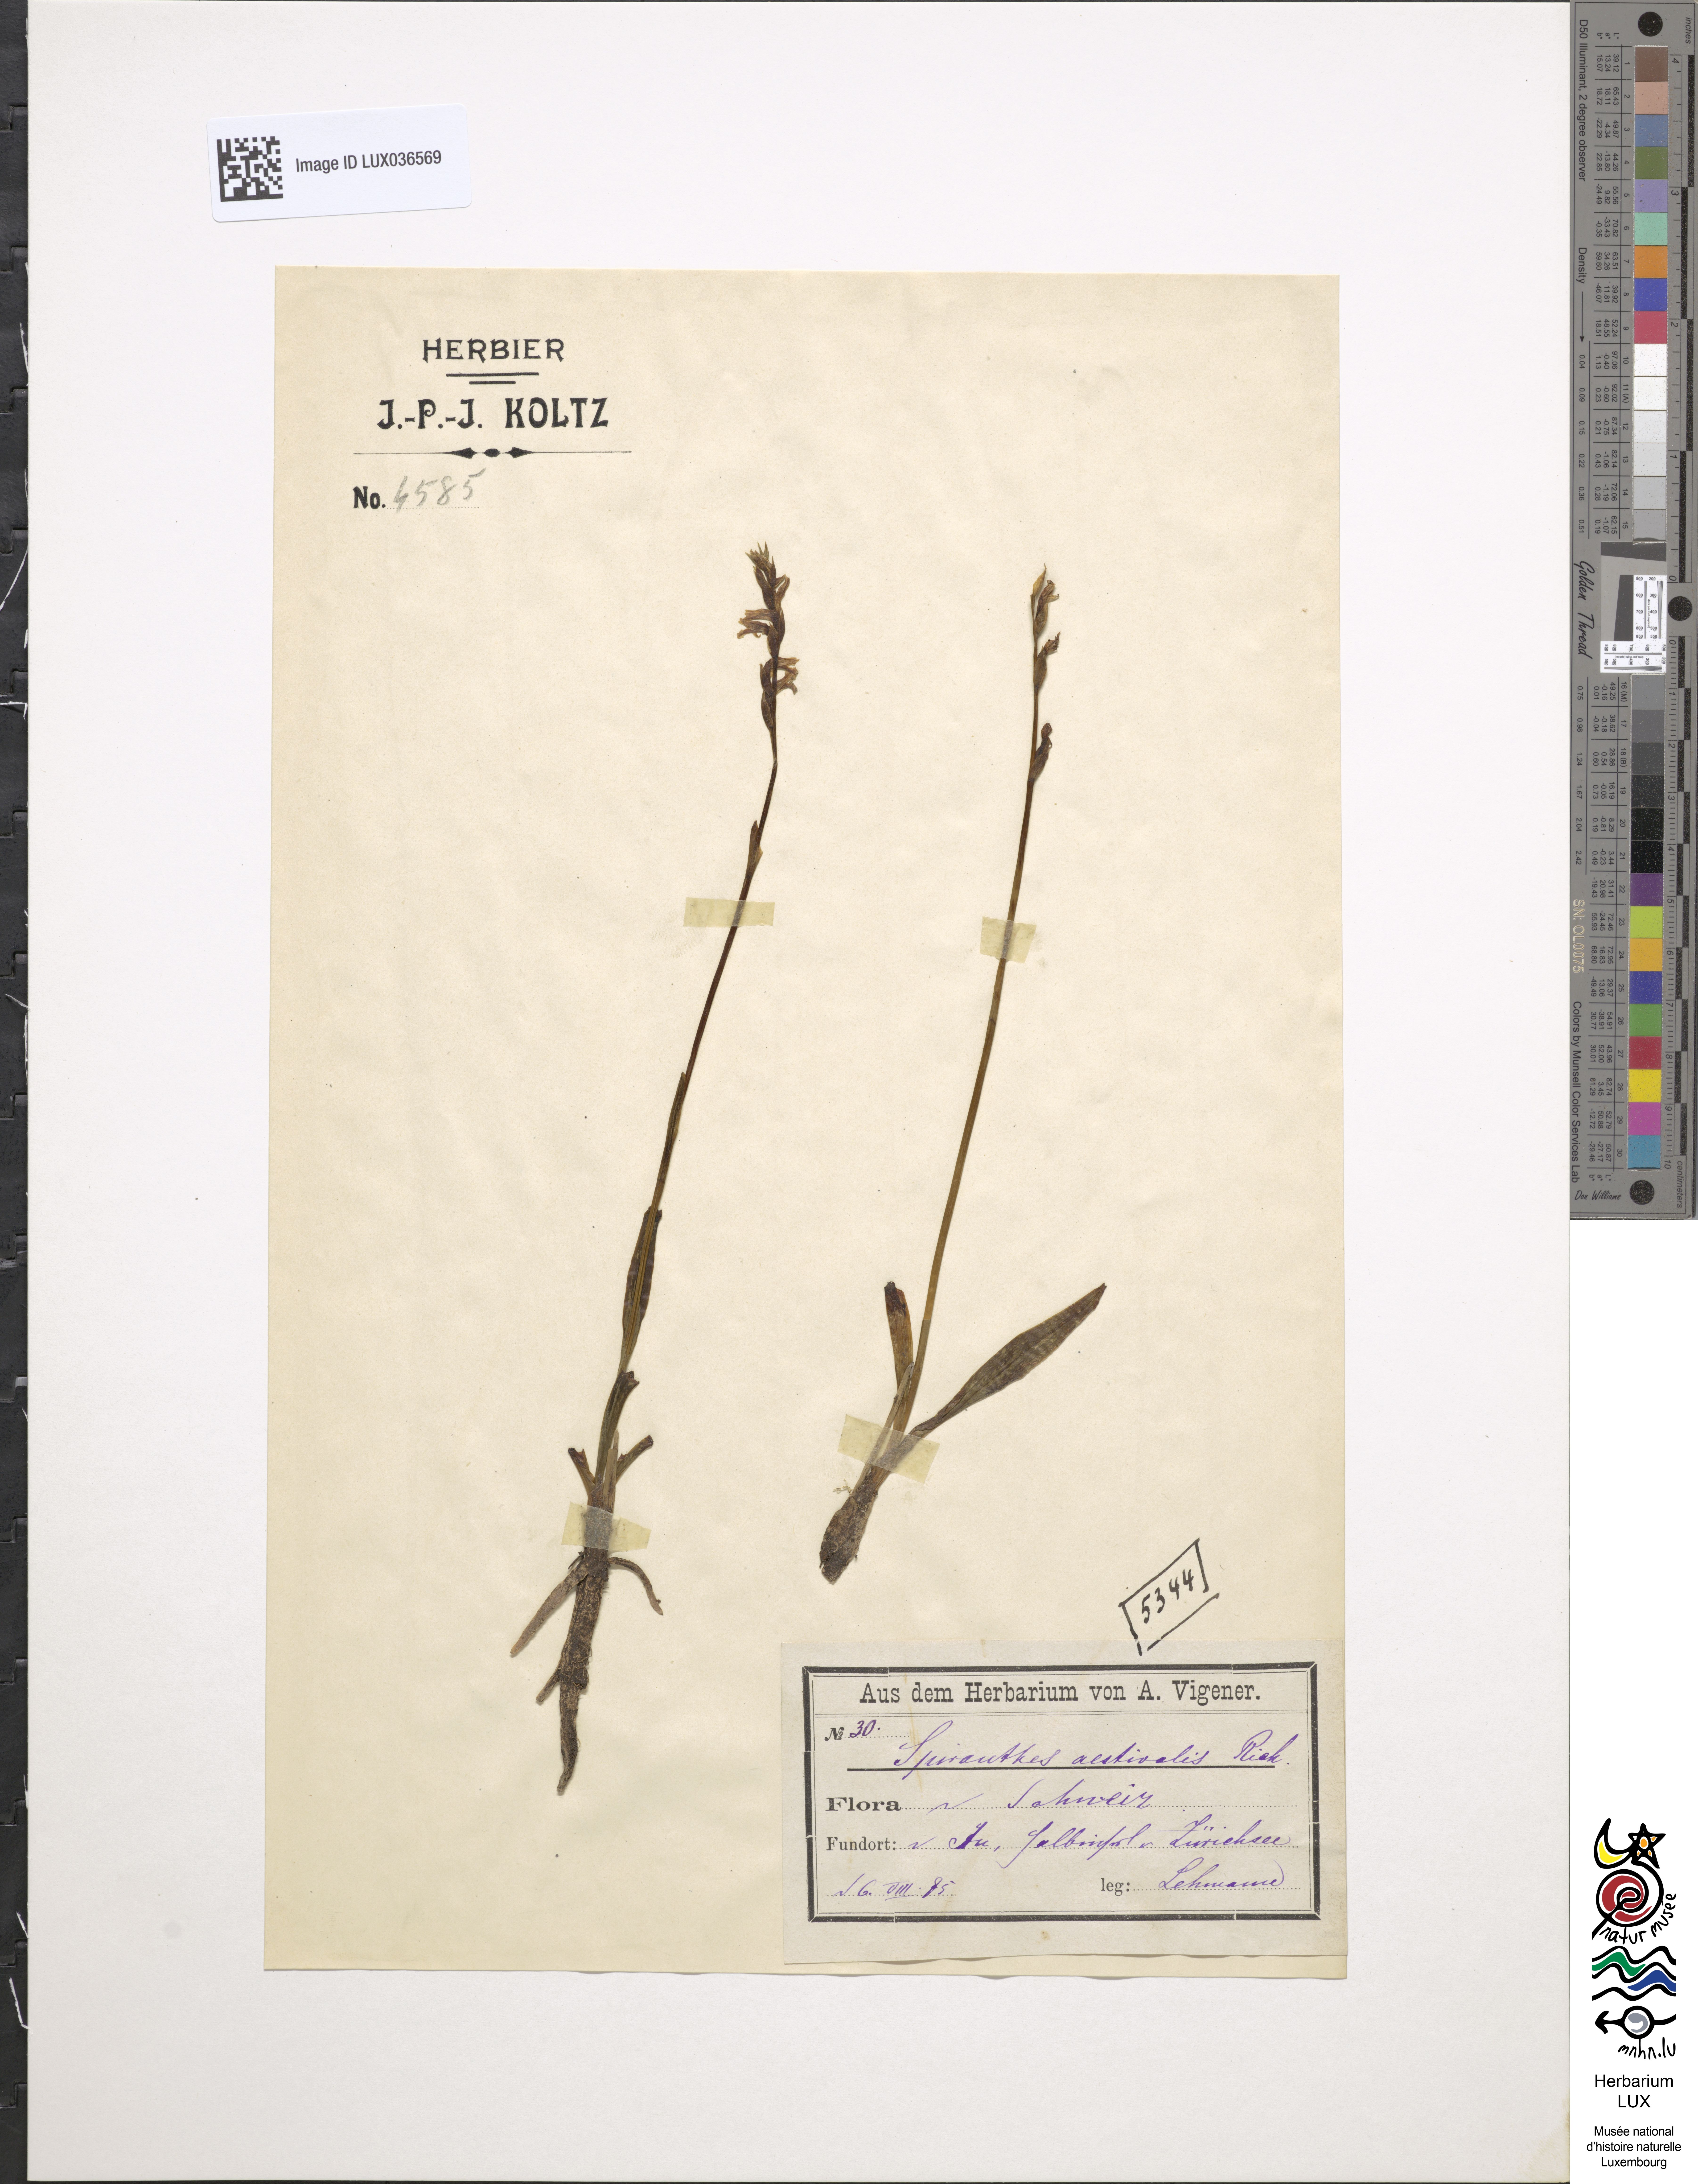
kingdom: Plantae
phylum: Tracheophyta
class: Liliopsida
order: Asparagales
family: Orchidaceae
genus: Spiranthes
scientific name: Spiranthes aestivalis
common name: Summer lady's-tresses
